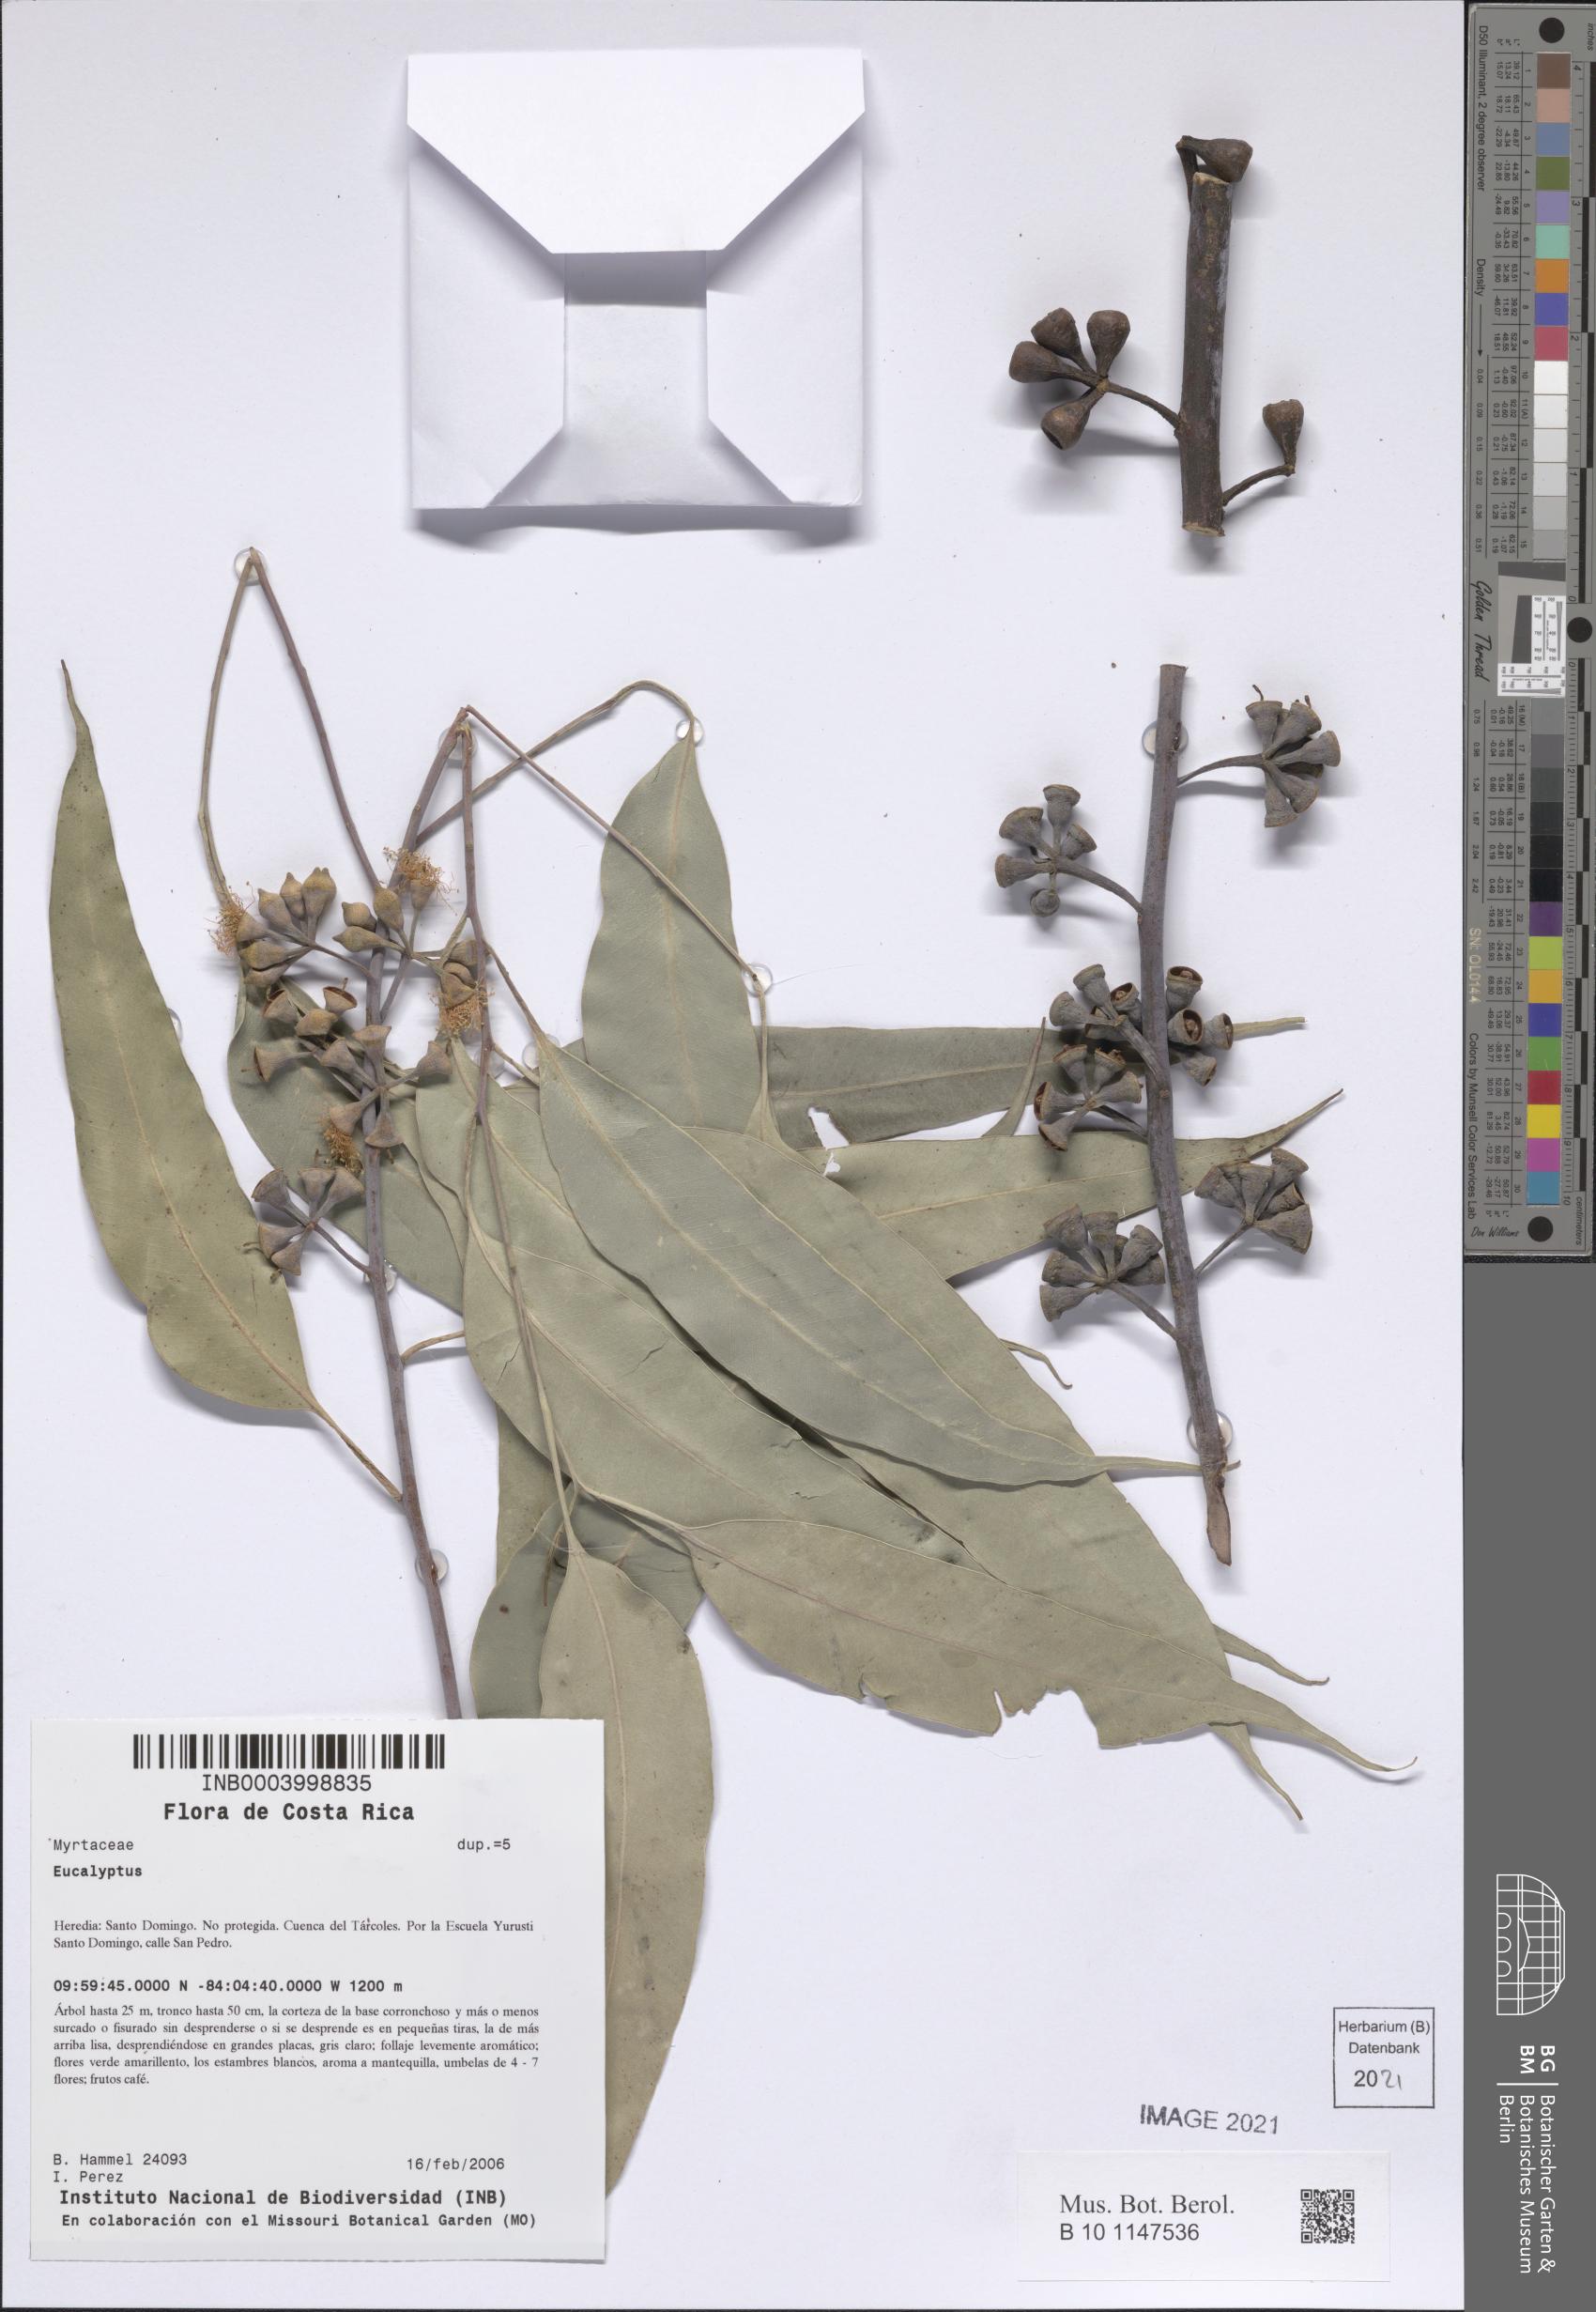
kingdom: Plantae
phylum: Tracheophyta
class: Magnoliopsida
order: Myrtales
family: Myrtaceae
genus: Eucalyptus
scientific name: Eucalyptus
